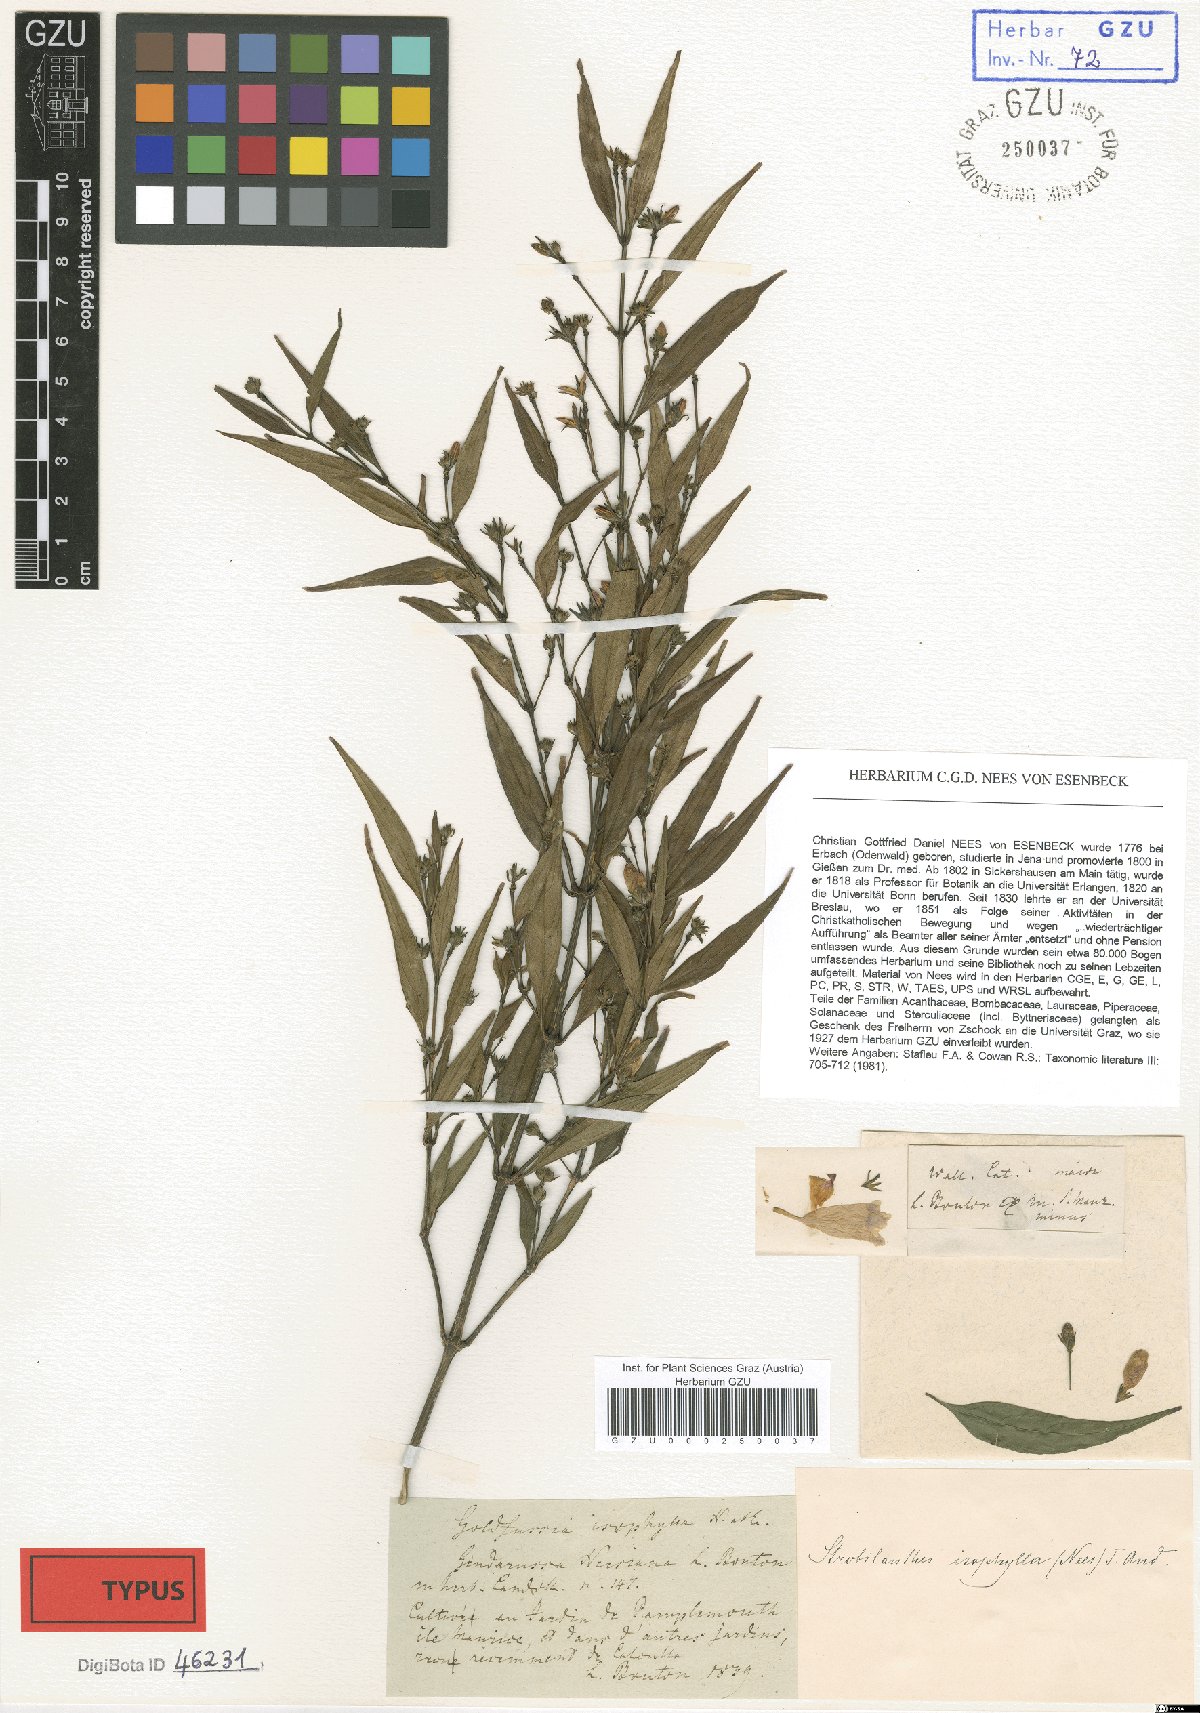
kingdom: Plantae
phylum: Tracheophyta
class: Magnoliopsida
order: Lamiales
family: Acanthaceae
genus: Strobilanthes
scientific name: Strobilanthes anisophylla
